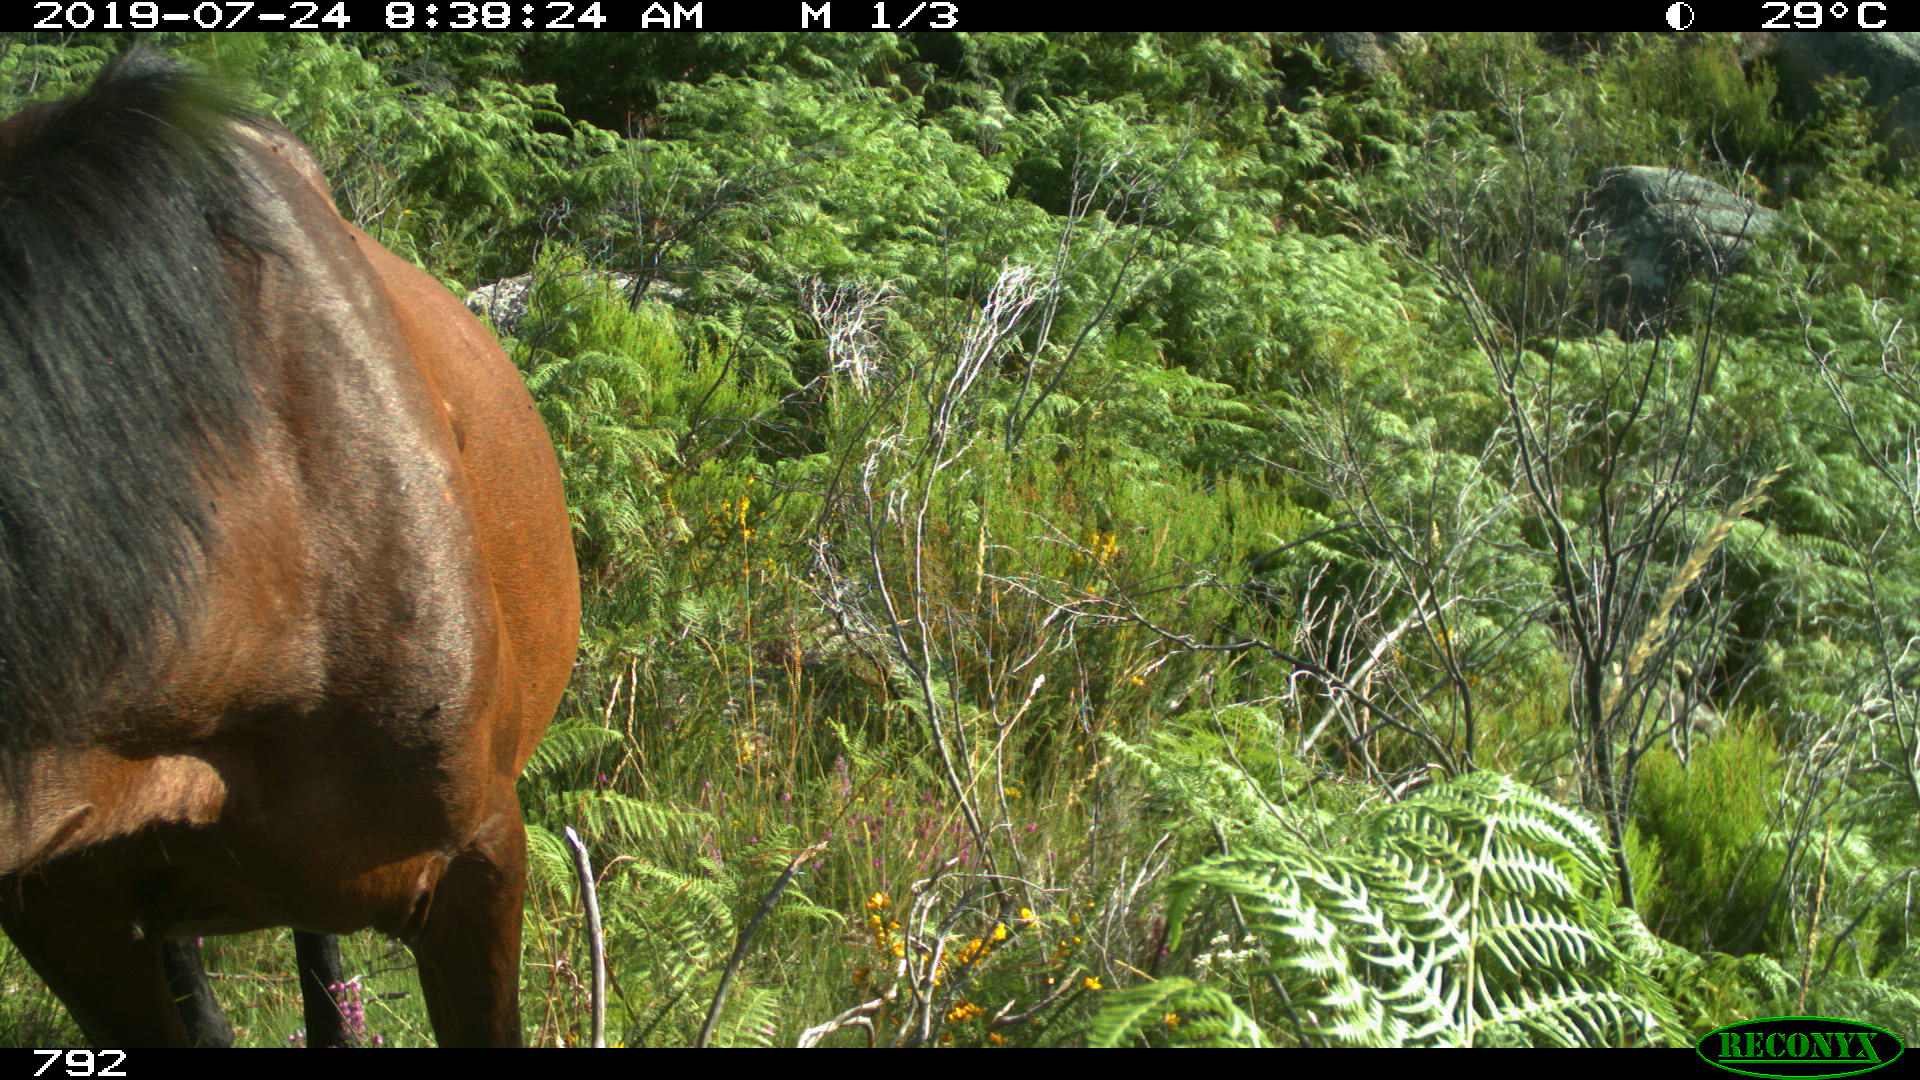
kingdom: Animalia
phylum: Chordata
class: Mammalia
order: Perissodactyla
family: Equidae
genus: Equus
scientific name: Equus caballus
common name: Horse
